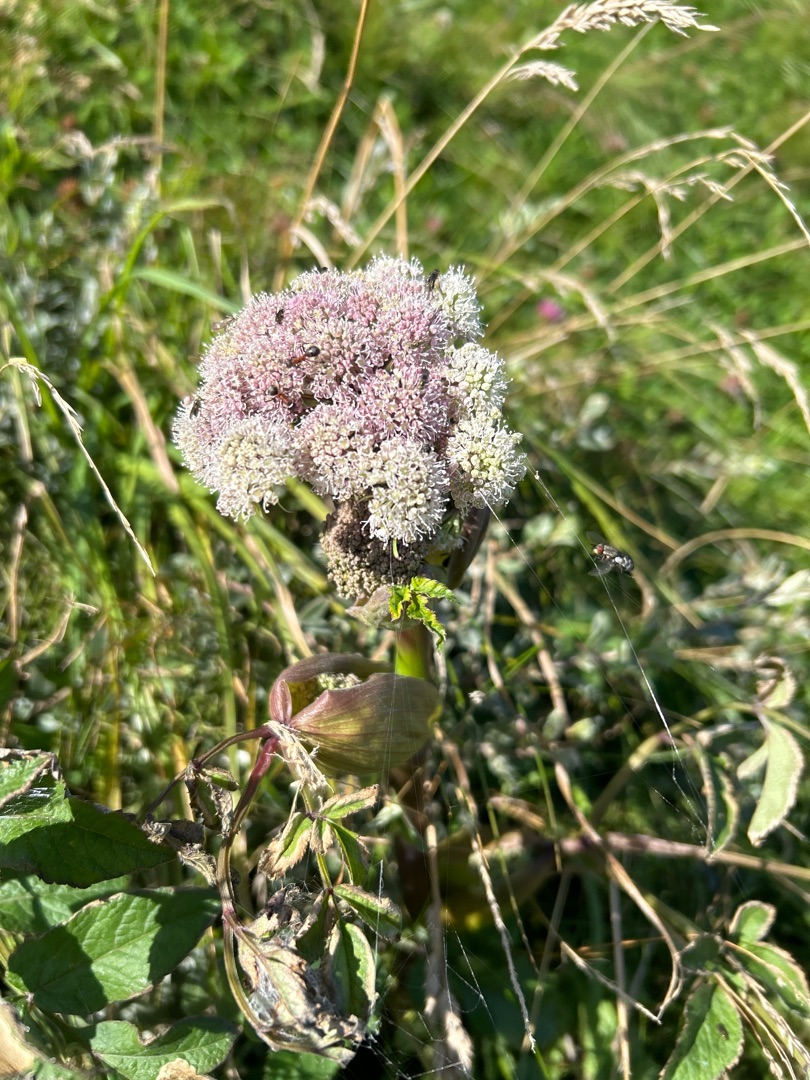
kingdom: Plantae
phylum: Tracheophyta
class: Magnoliopsida
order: Apiales
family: Apiaceae
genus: Angelica
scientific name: Angelica sylvestris
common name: Angelik
